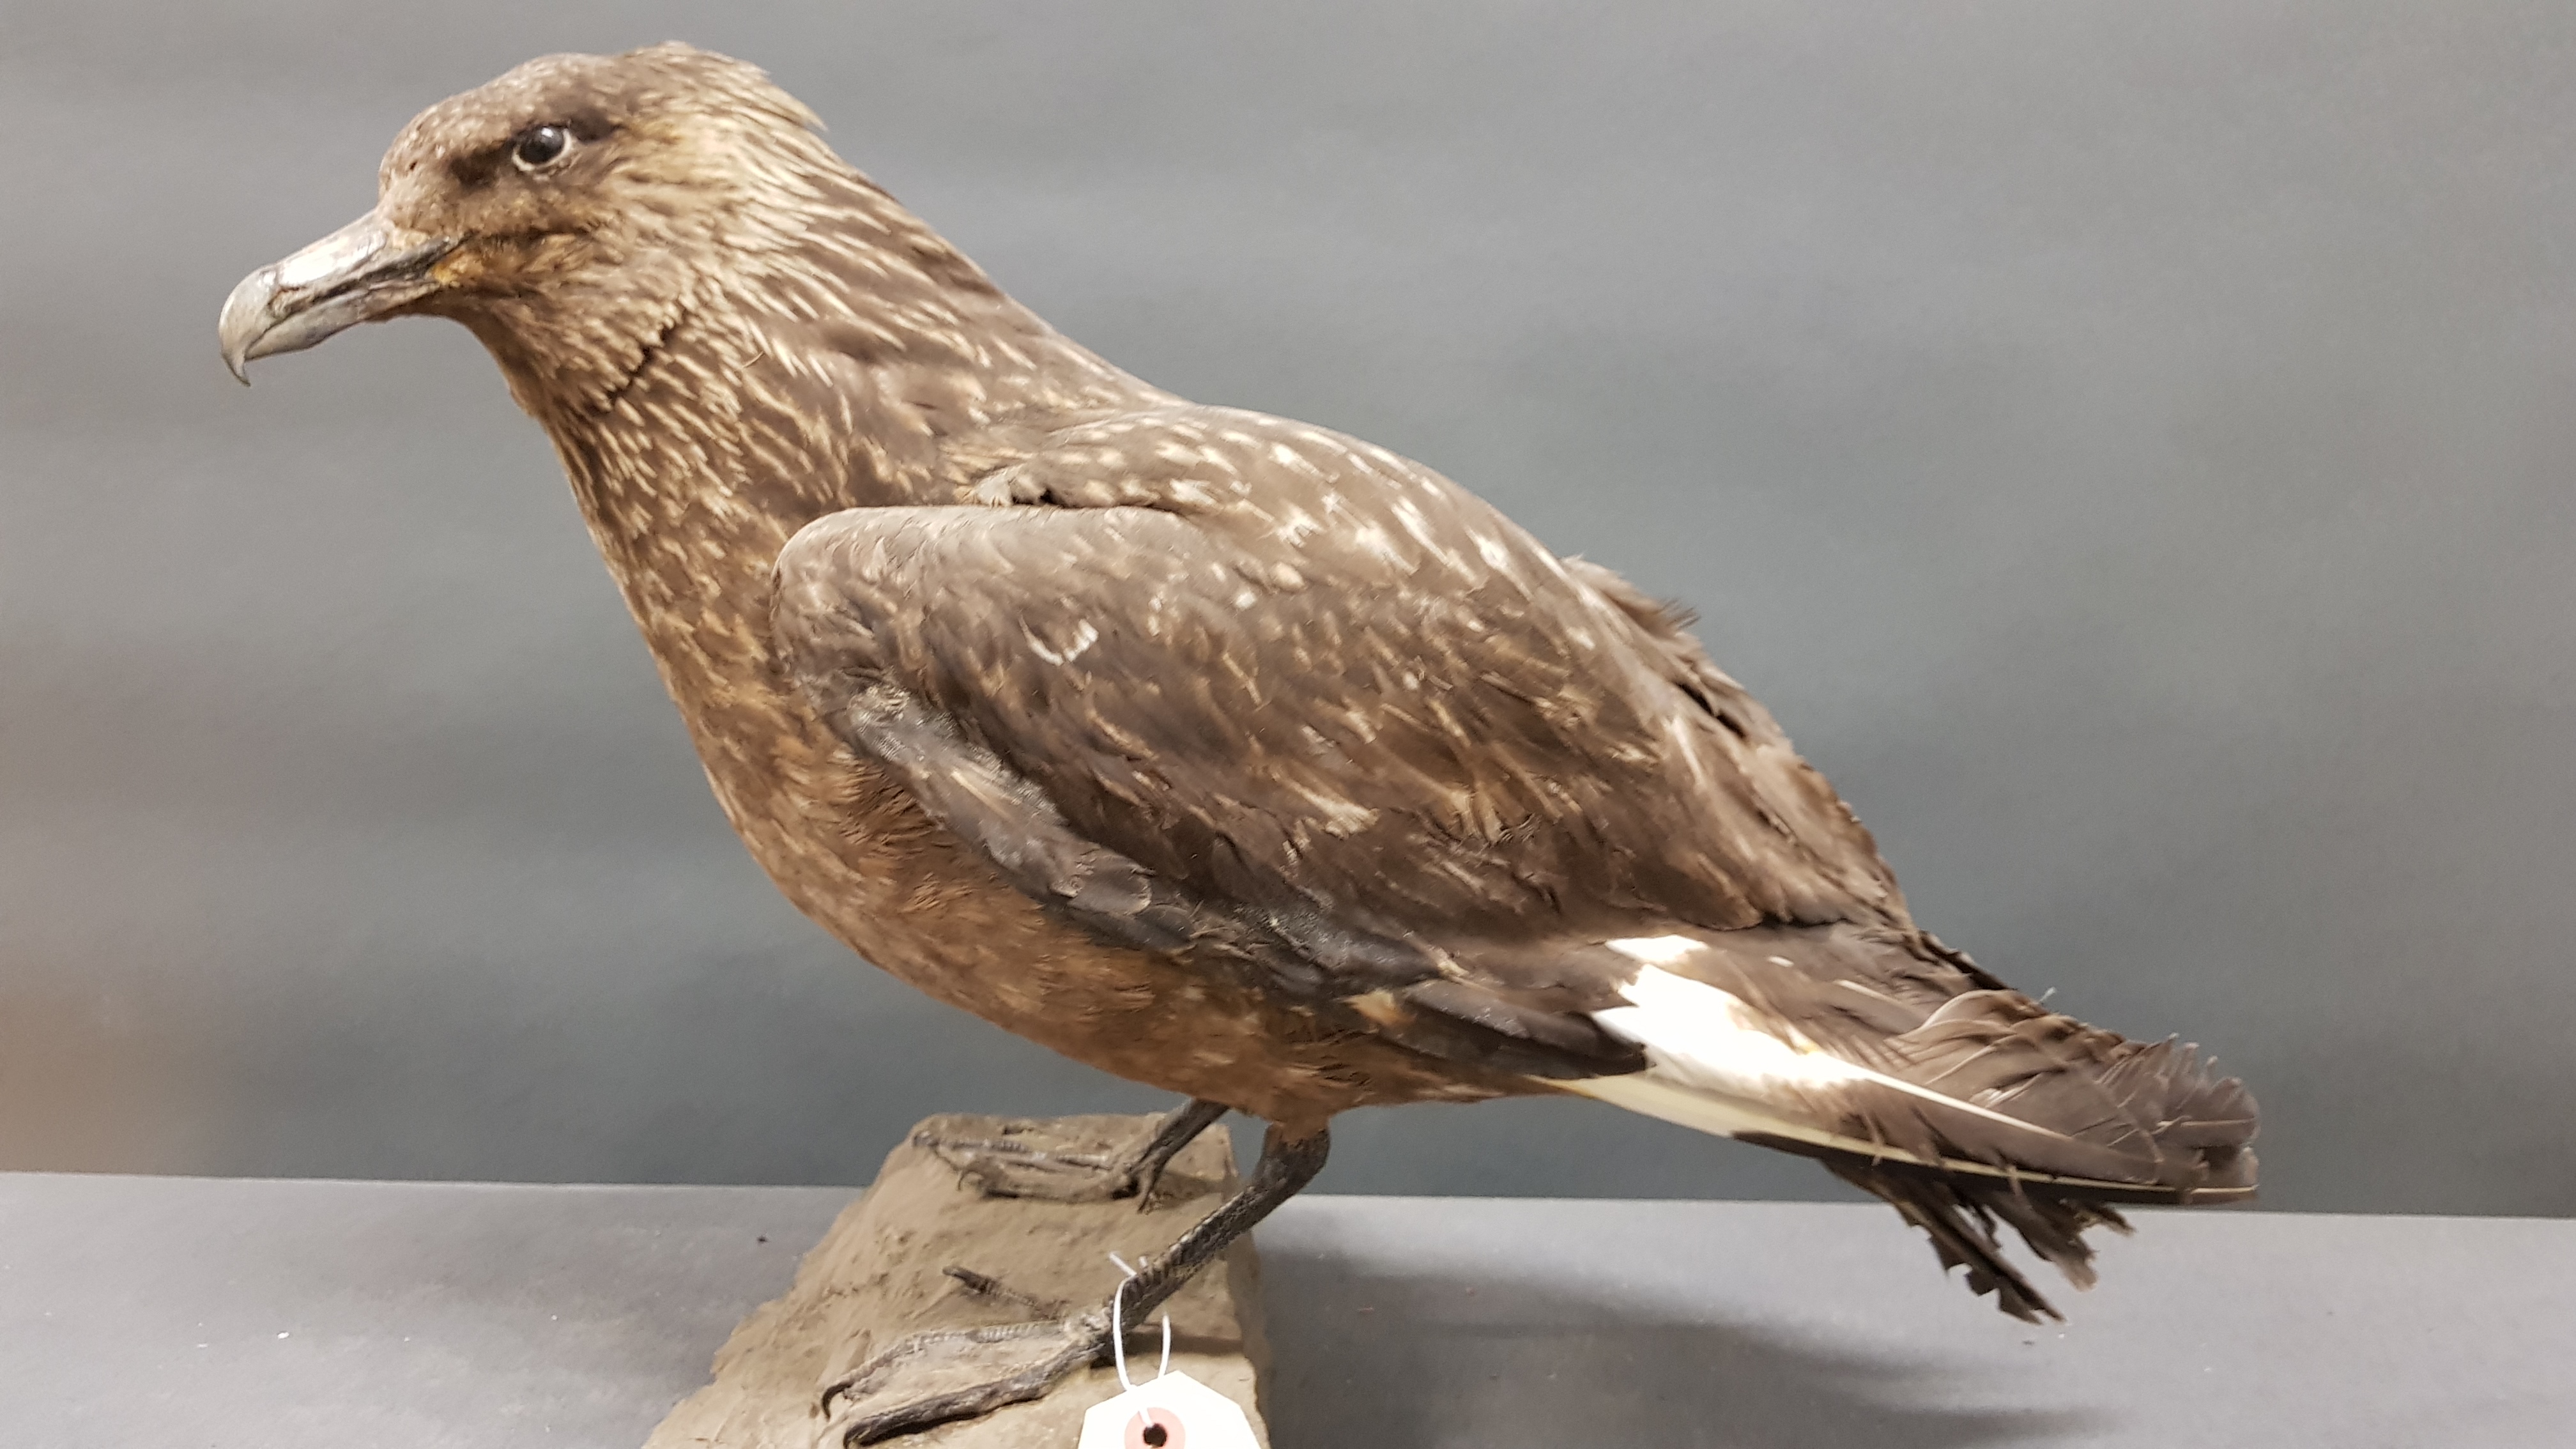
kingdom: Animalia
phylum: Chordata
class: Aves
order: Charadriiformes
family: Stercorariidae
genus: Stercorarius
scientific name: Stercorarius skua
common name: Great skua
